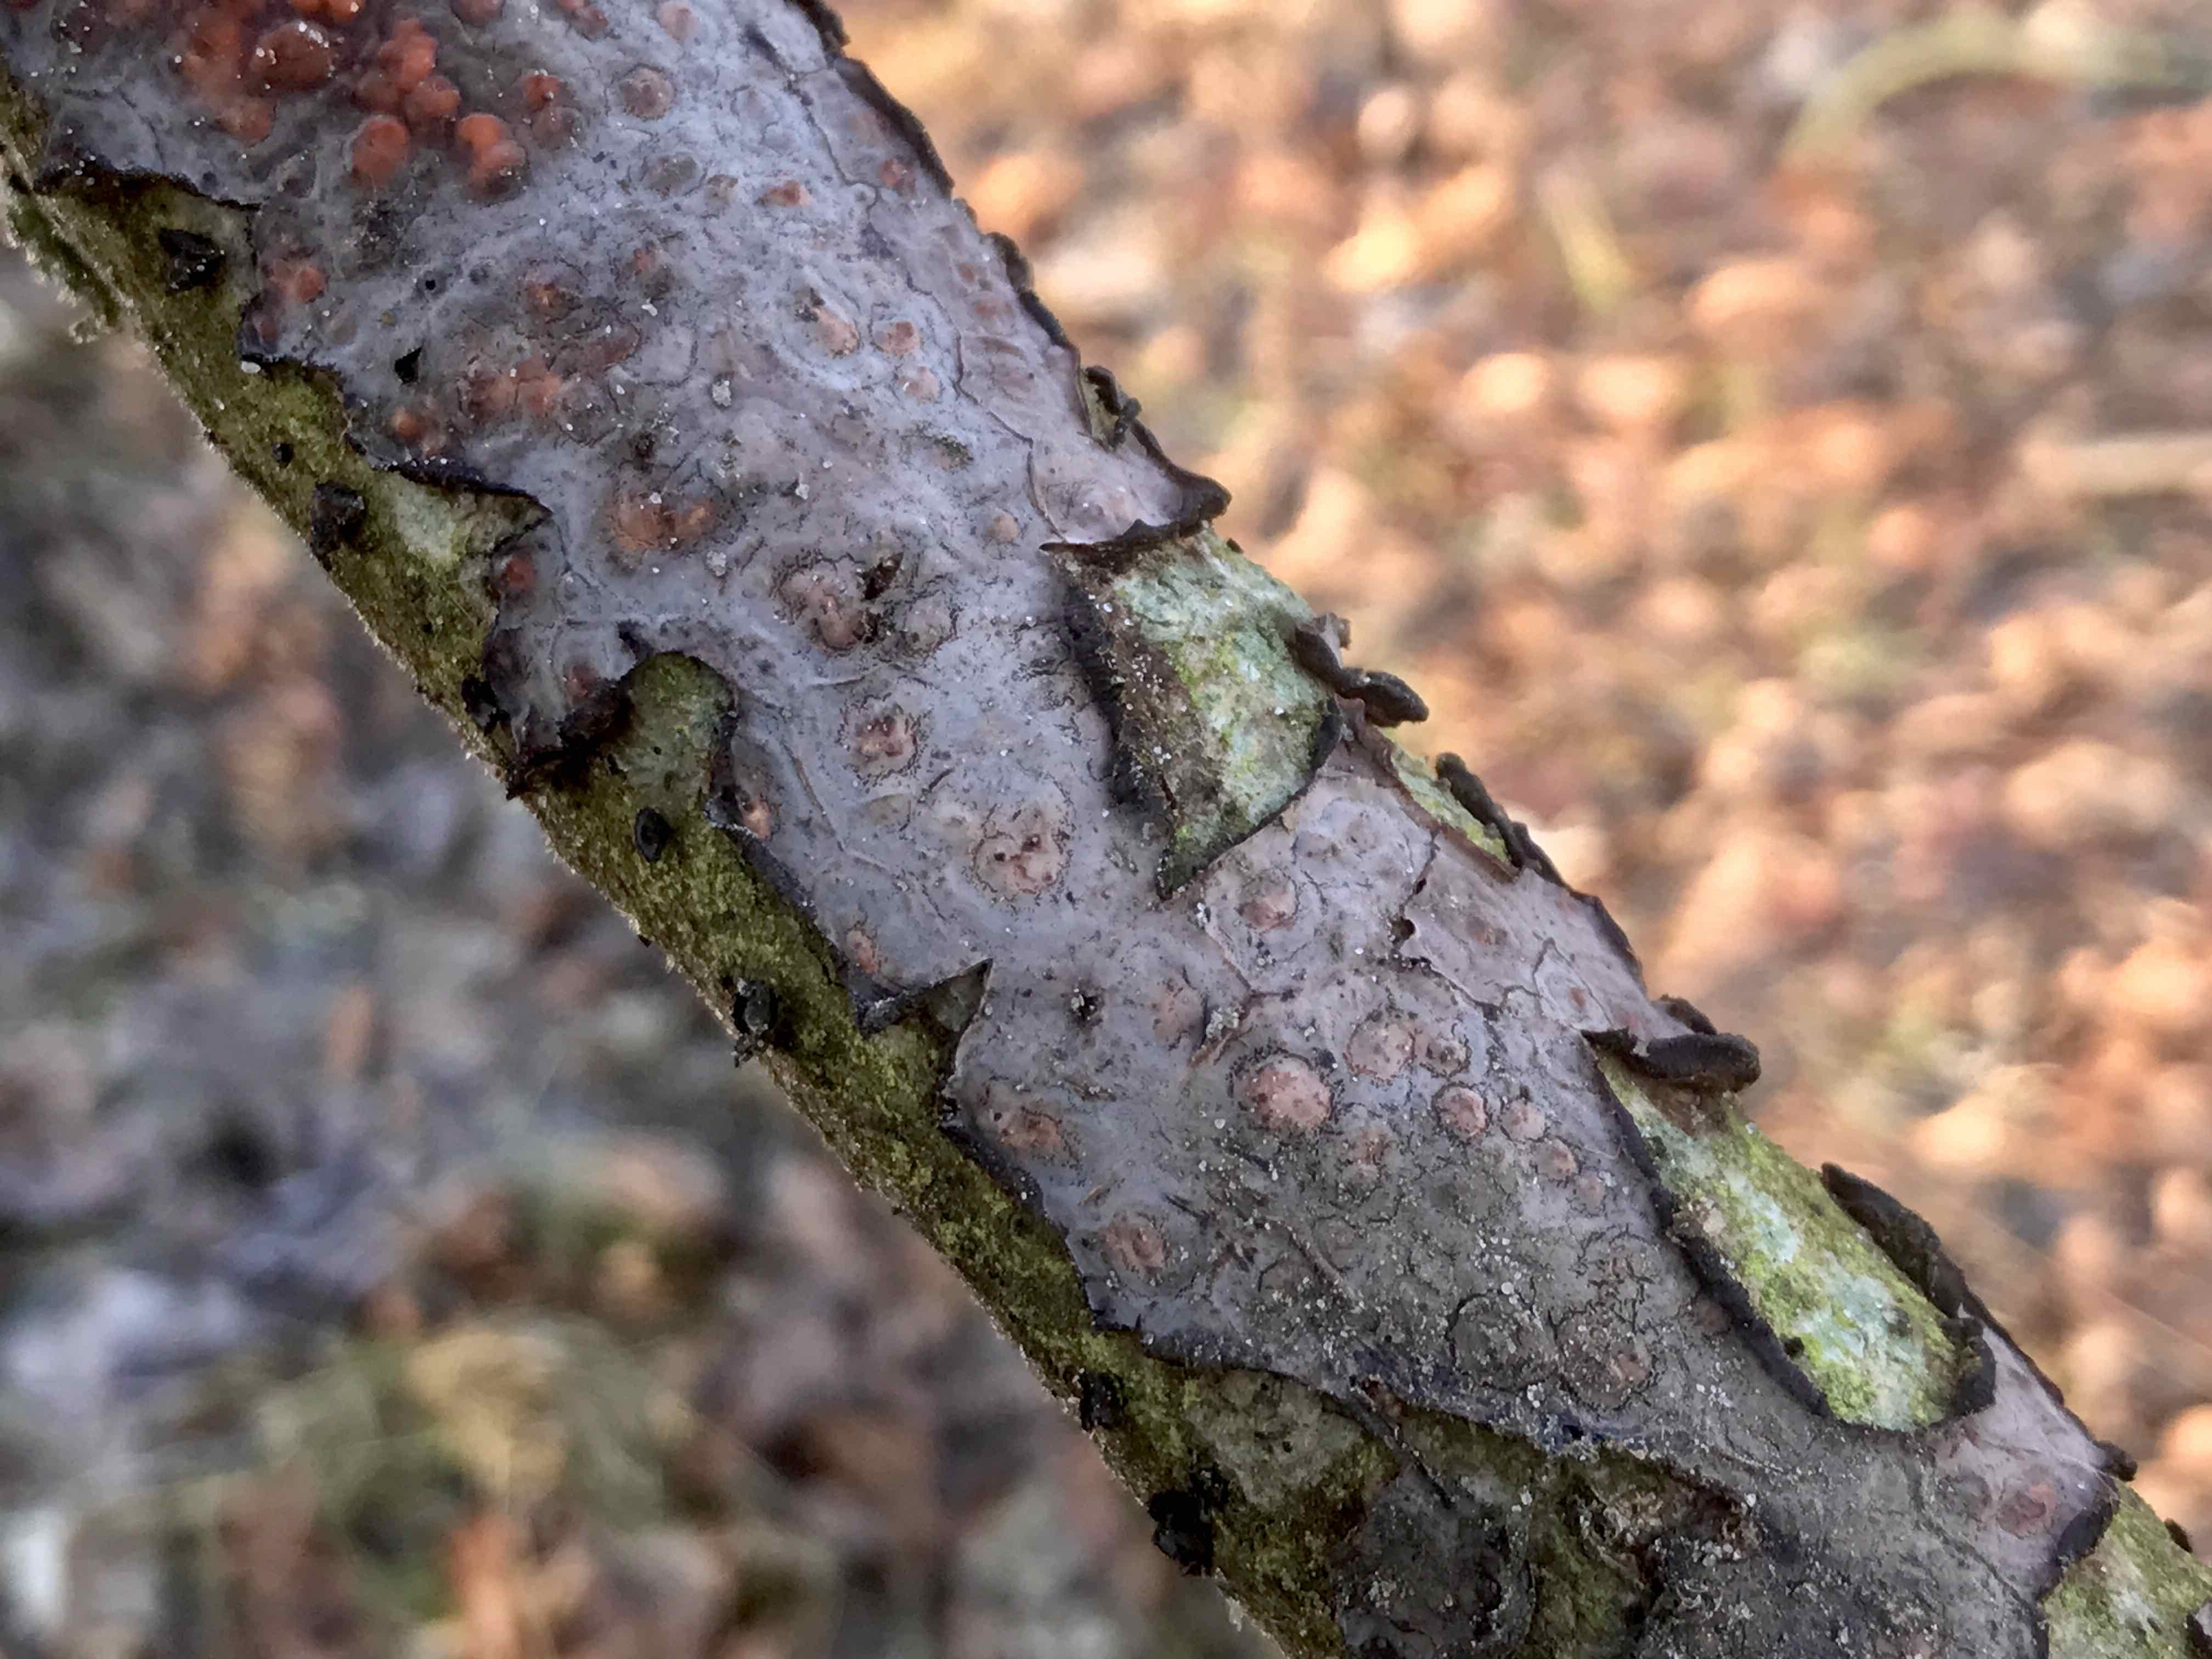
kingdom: Fungi
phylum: Basidiomycota
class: Agaricomycetes
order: Russulales
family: Peniophoraceae
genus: Peniophora
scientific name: Peniophora quercina
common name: ege-voksskind
